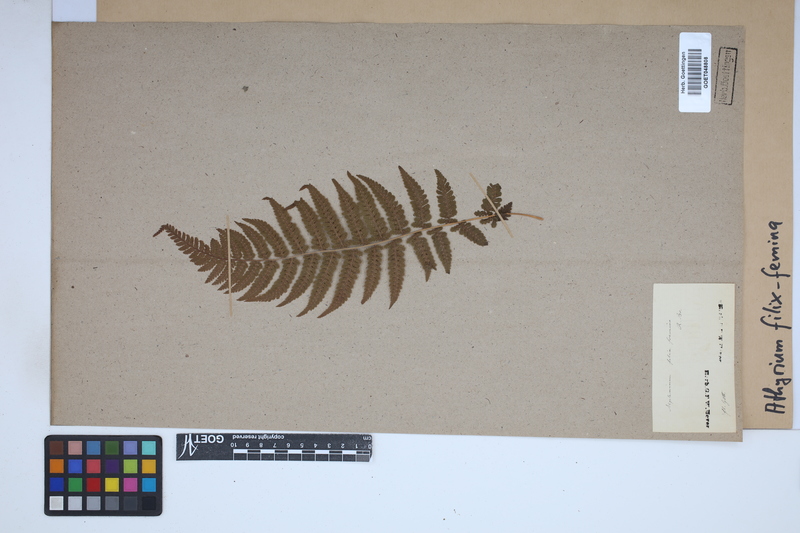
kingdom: Plantae
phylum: Tracheophyta
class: Polypodiopsida
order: Polypodiales
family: Athyriaceae
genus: Athyrium
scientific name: Athyrium filix-femina
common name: Lady fern
